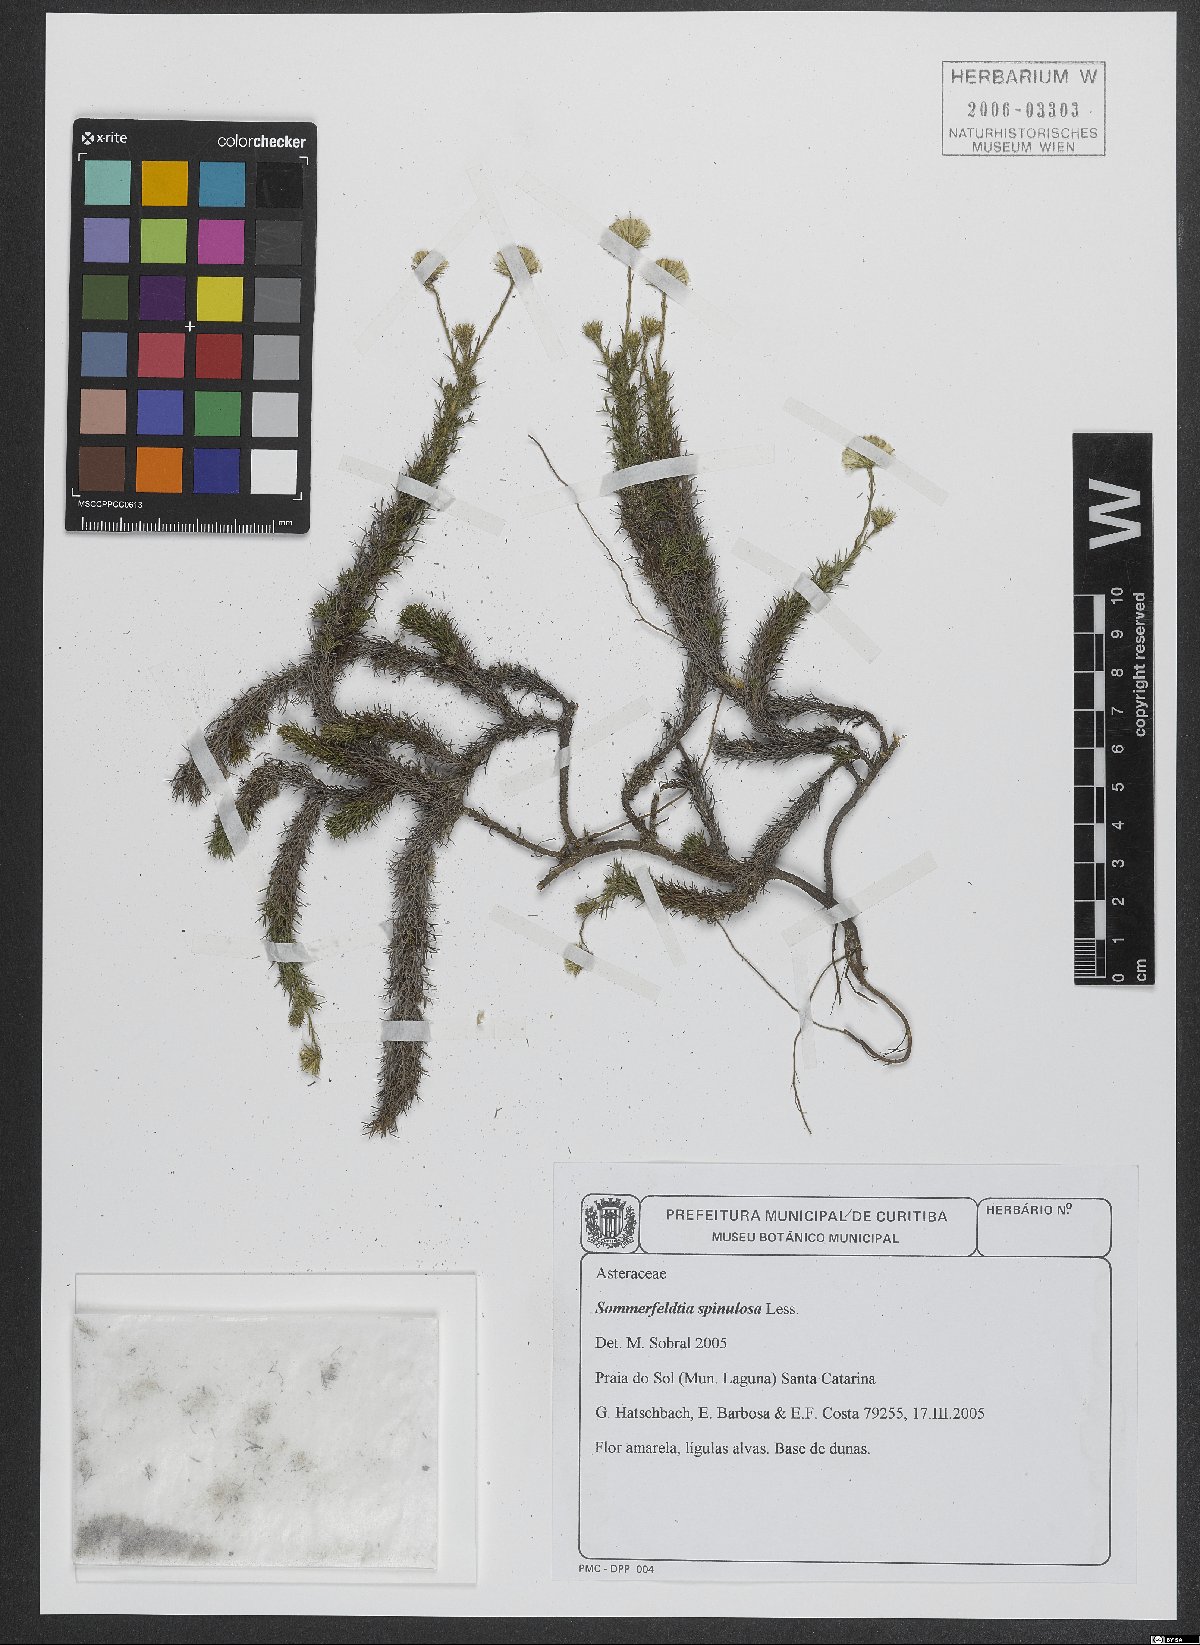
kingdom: Plantae
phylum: Tracheophyta
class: Magnoliopsida
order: Asterales
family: Asteraceae
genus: Sommerfeltia
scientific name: Sommerfeltia spinulosa
